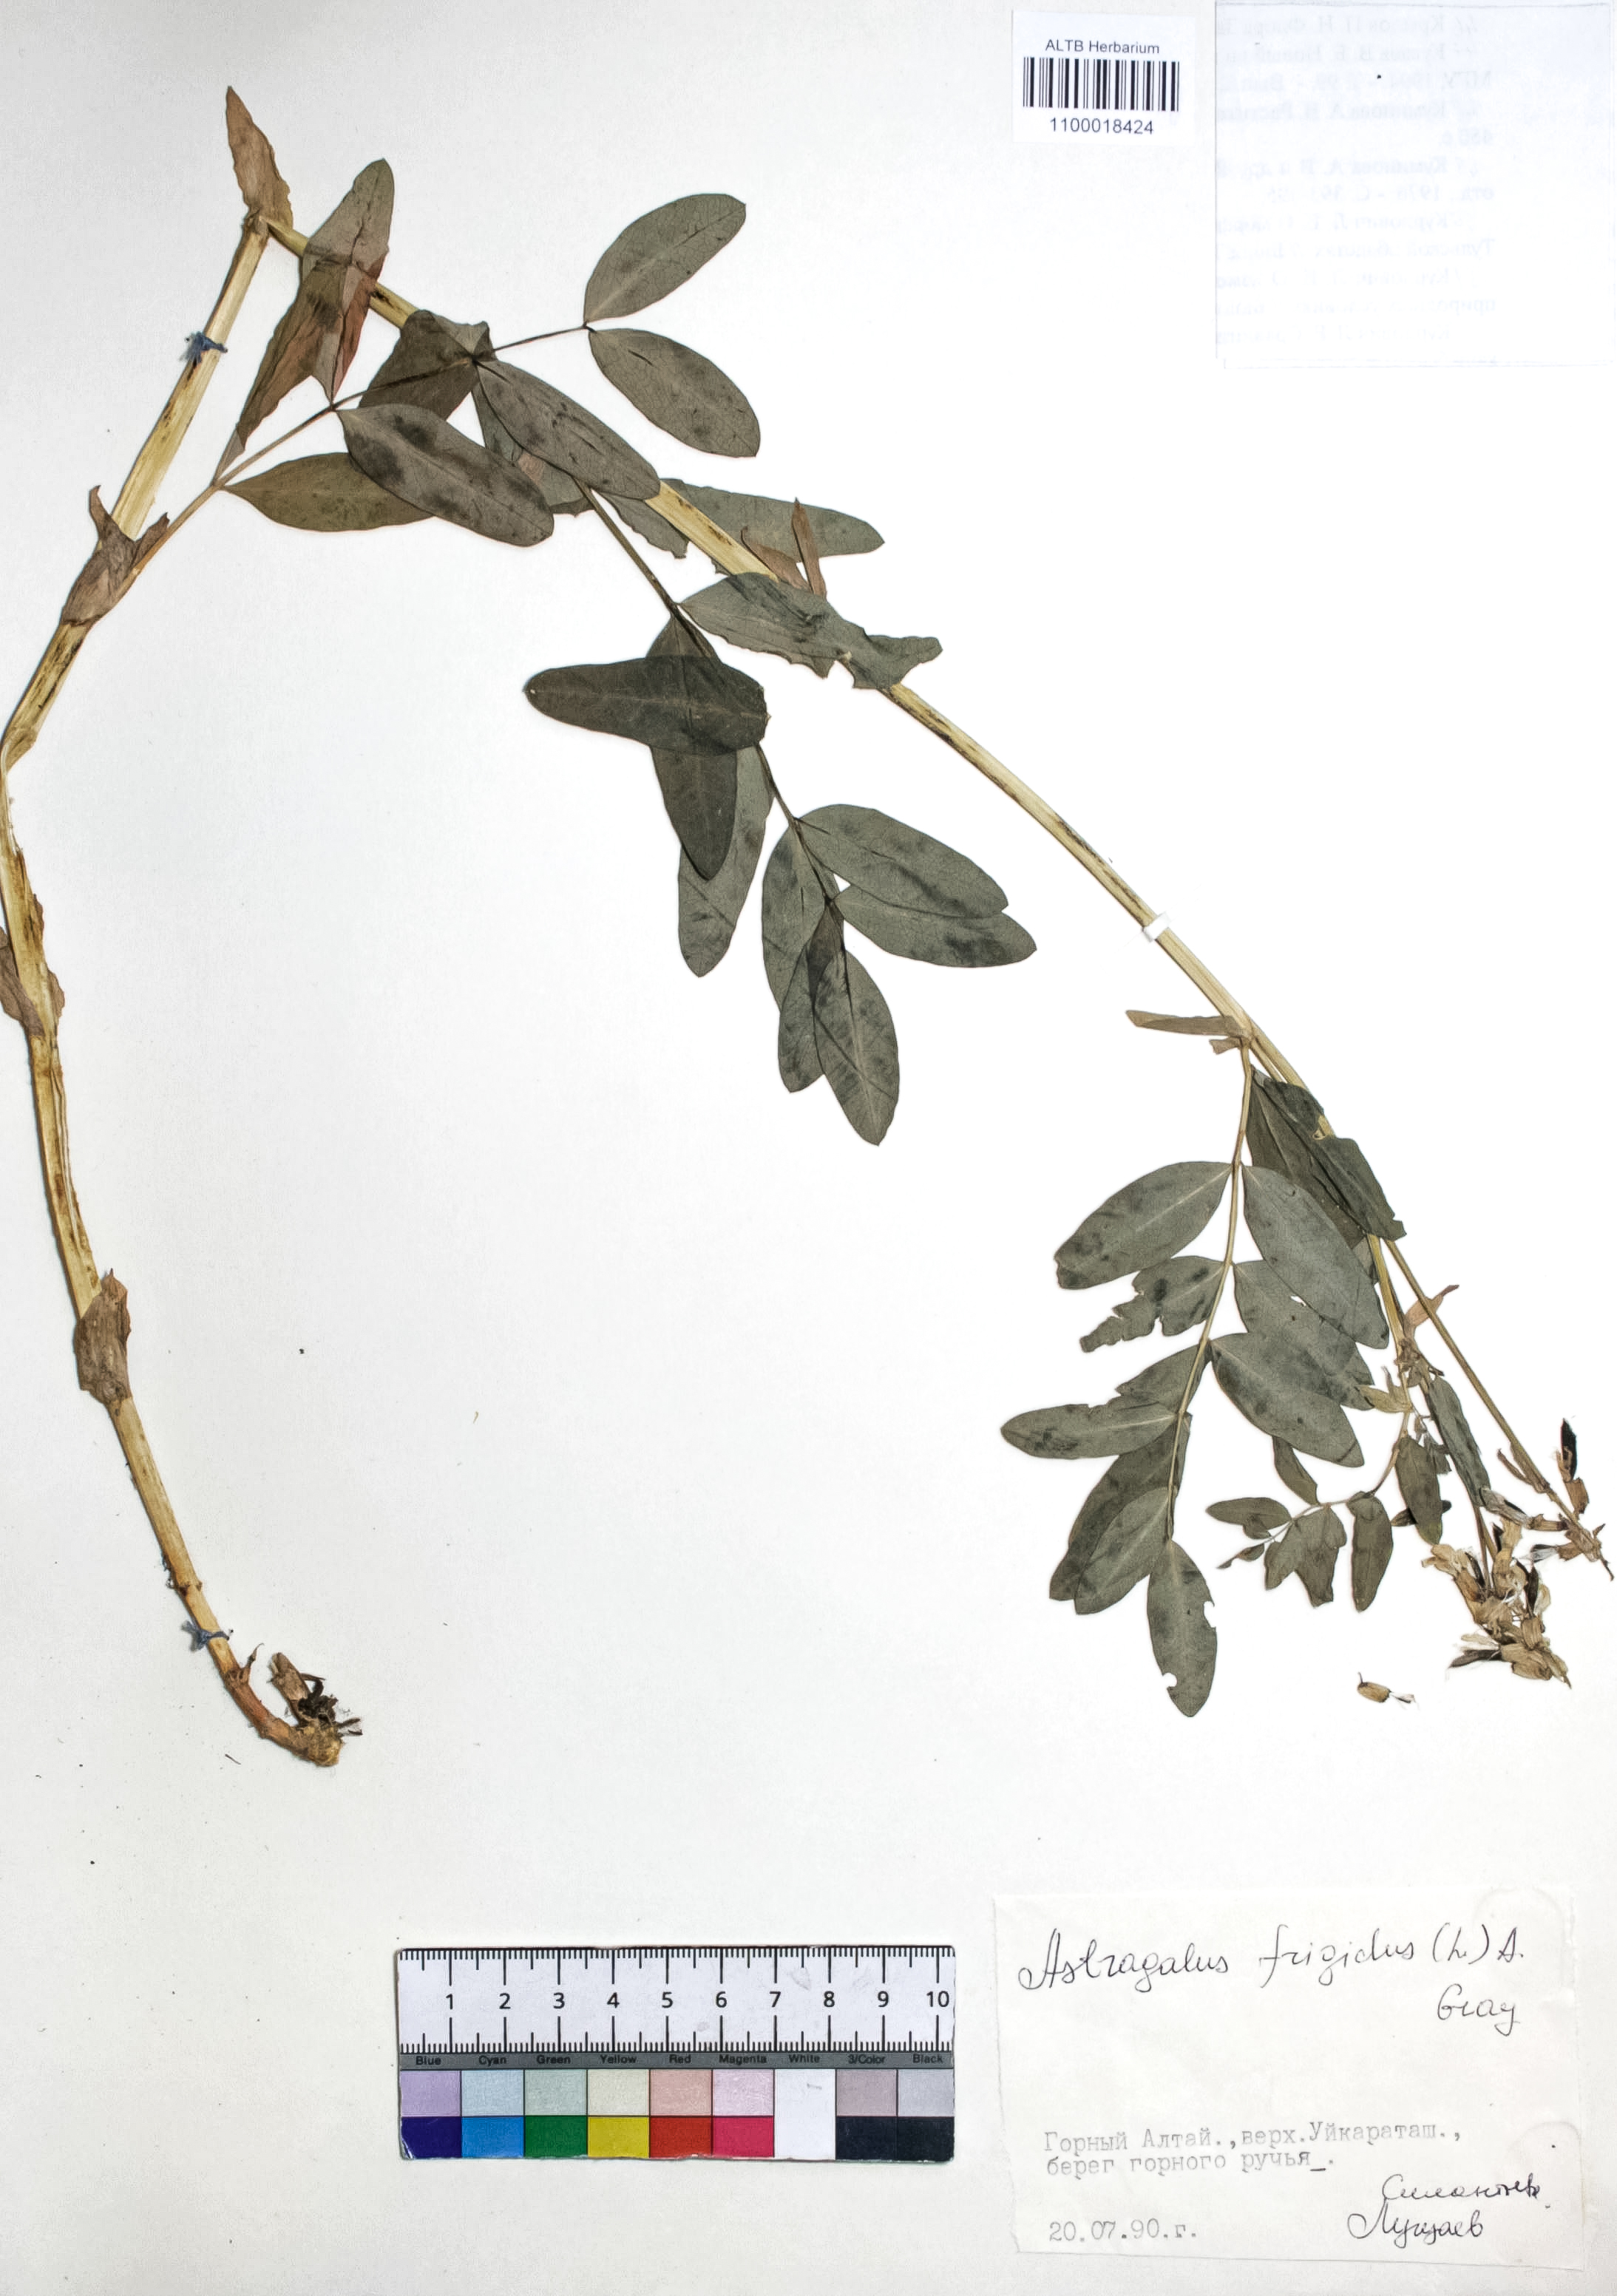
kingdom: Plantae
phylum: Tracheophyta
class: Magnoliopsida
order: Fabales
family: Fabaceae
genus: Astragalus
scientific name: Astragalus frigidus
